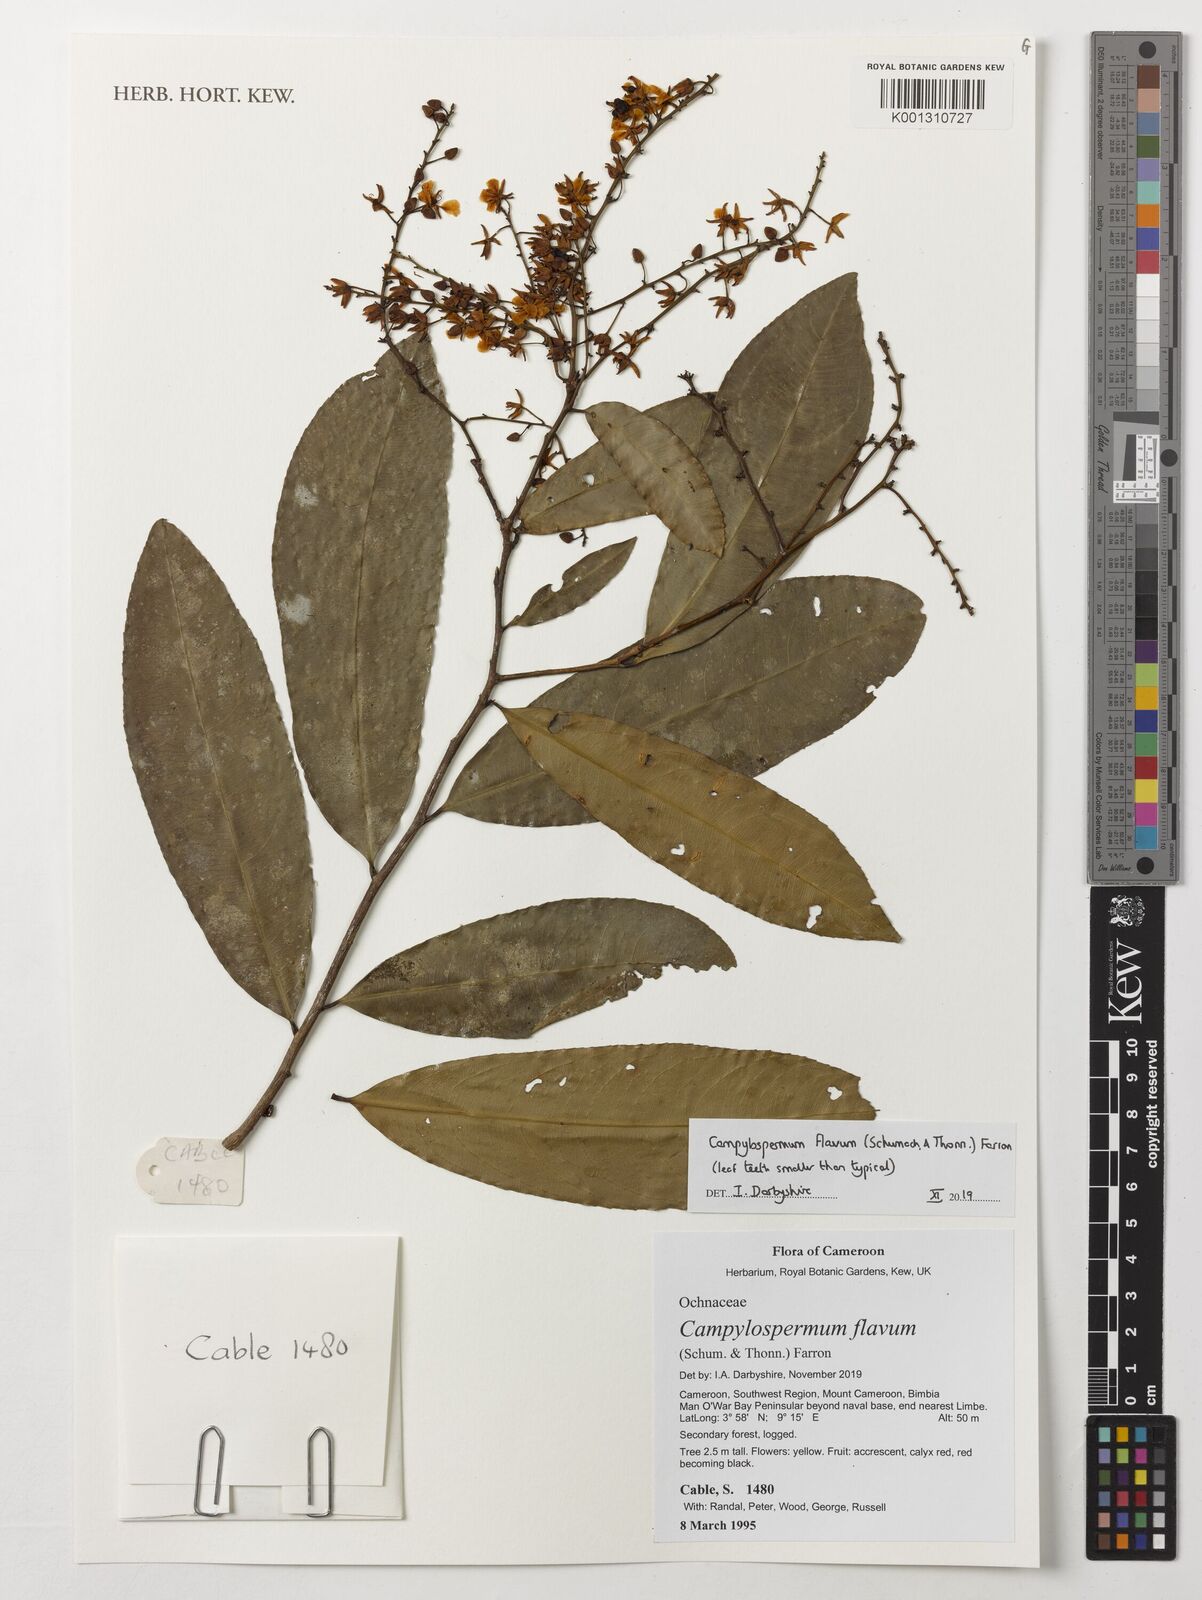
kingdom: Plantae
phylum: Tracheophyta
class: Magnoliopsida
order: Malpighiales
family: Ochnaceae
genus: Campylospermum
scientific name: Campylospermum dybovskii
